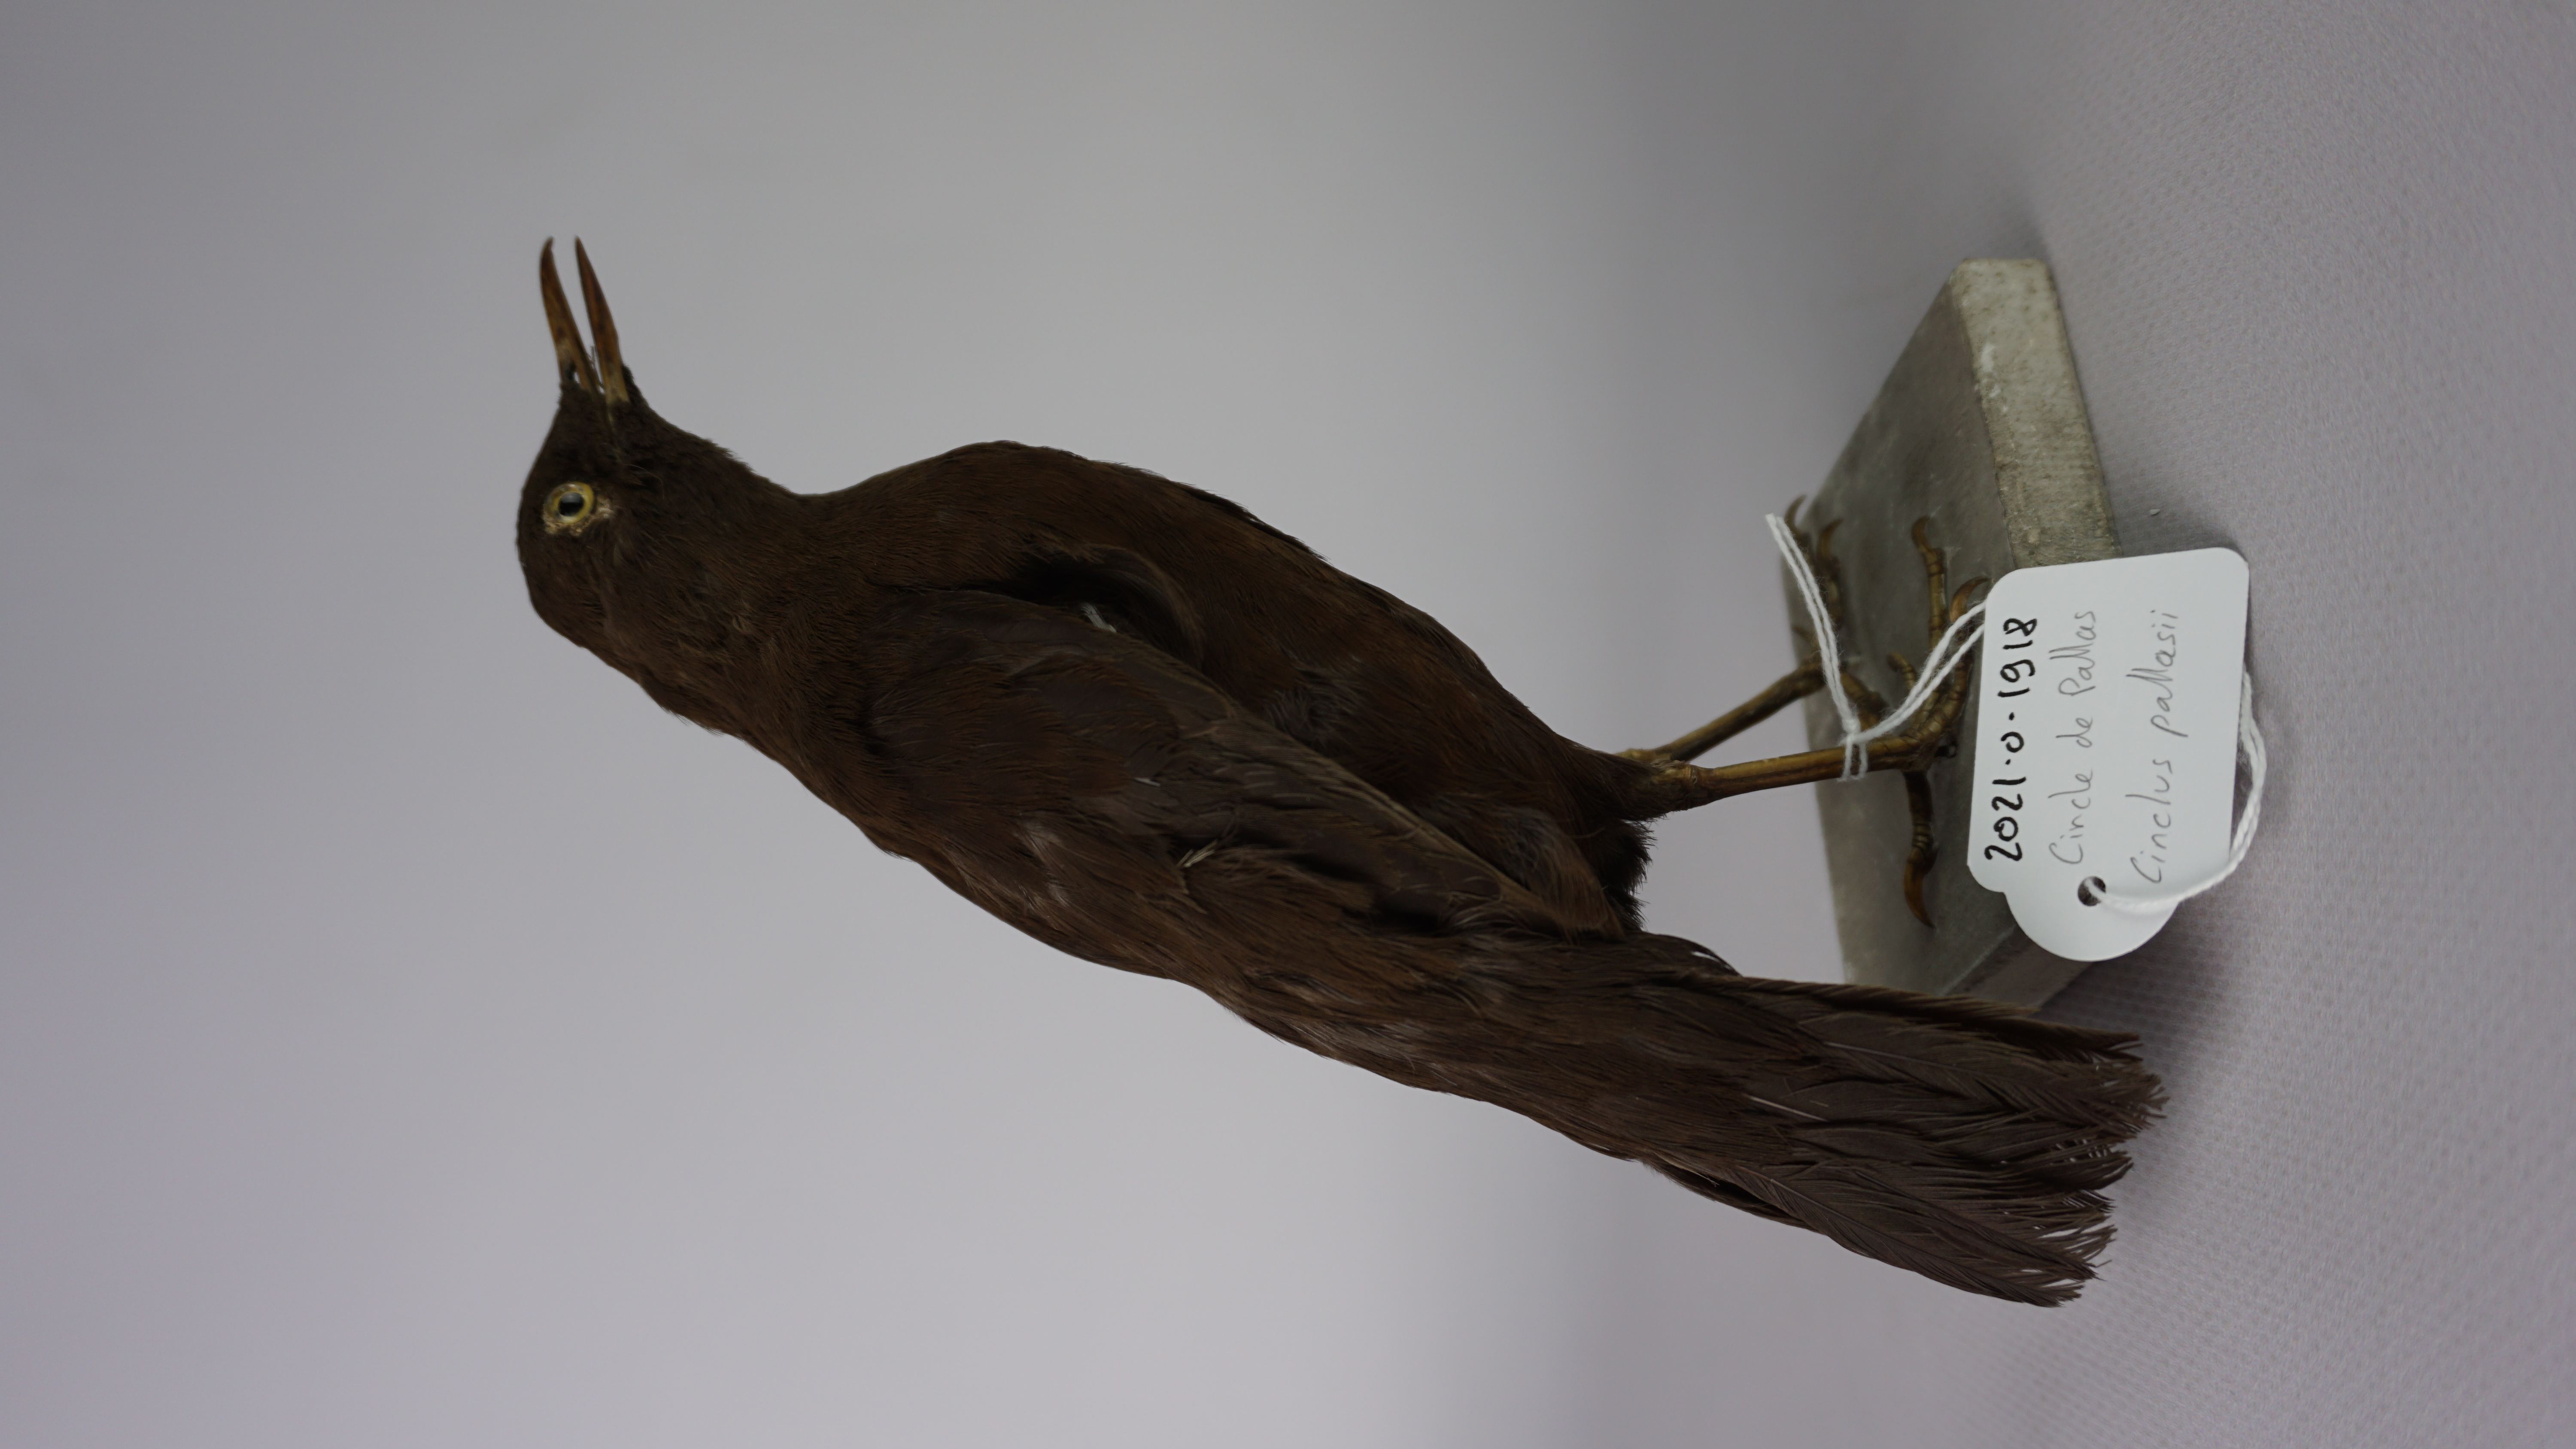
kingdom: Animalia
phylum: Chordata
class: Aves
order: Passeriformes
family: Cinclidae
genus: Cinclus
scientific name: Cinclus pallasii
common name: Brown dipper
